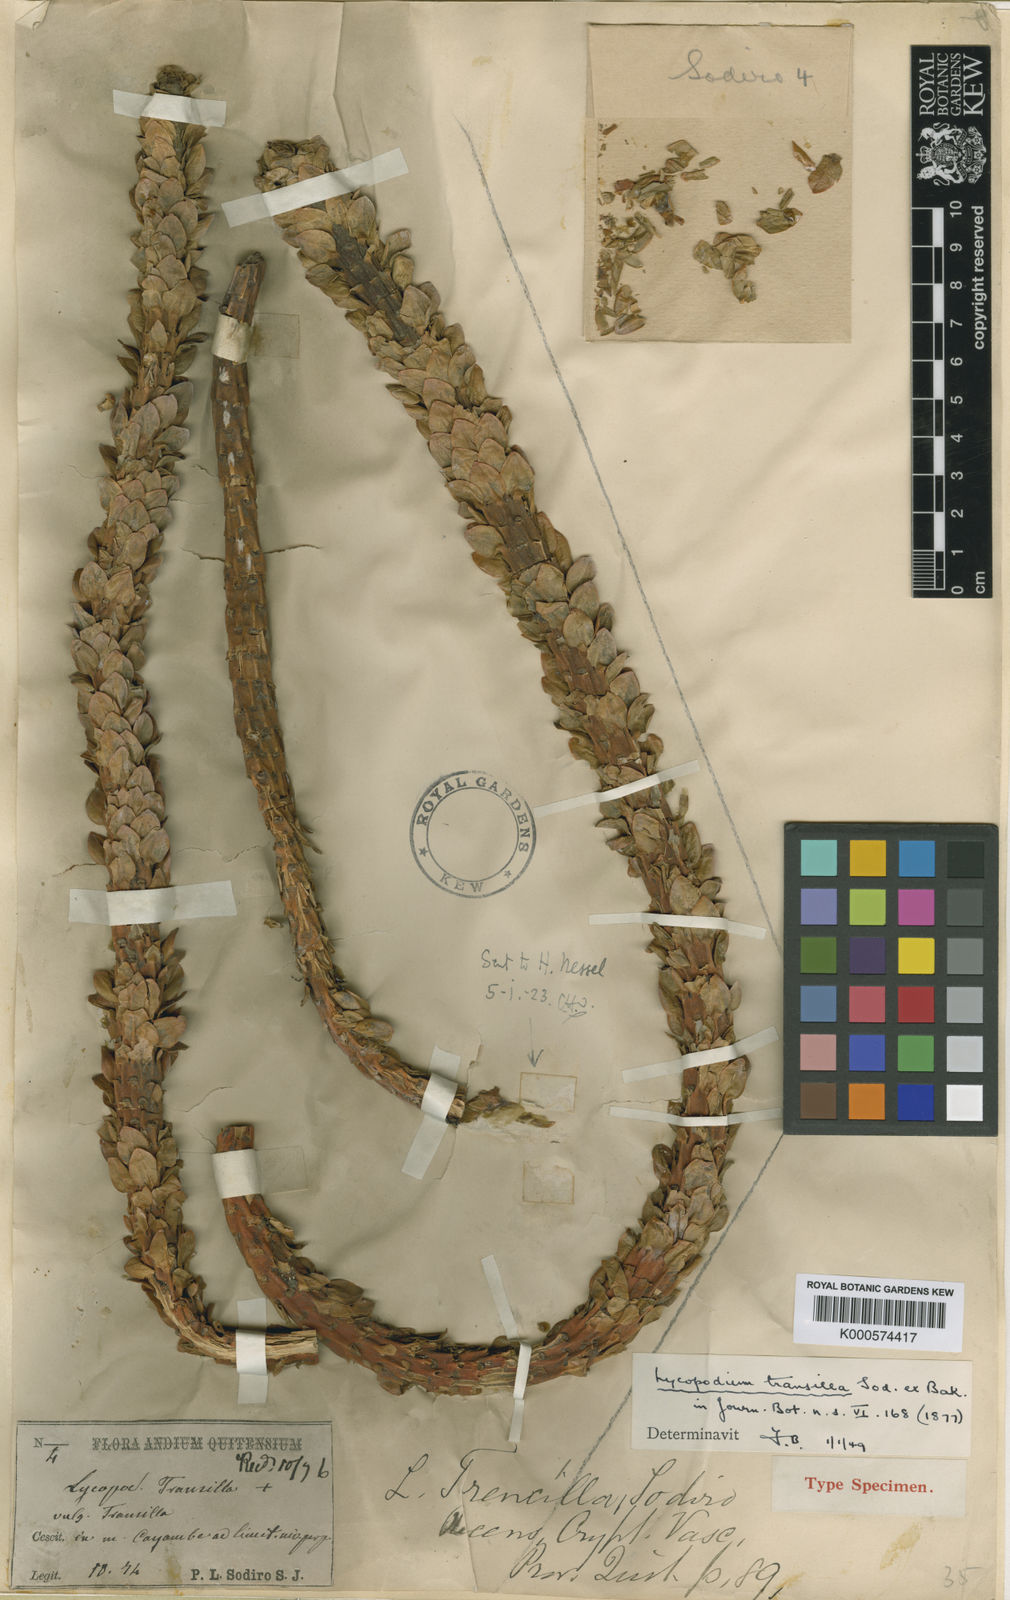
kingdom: Plantae
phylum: Tracheophyta
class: Lycopodiopsida
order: Lycopodiales
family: Lycopodiaceae
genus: Phlegmariurus
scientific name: Phlegmariurus transilla
